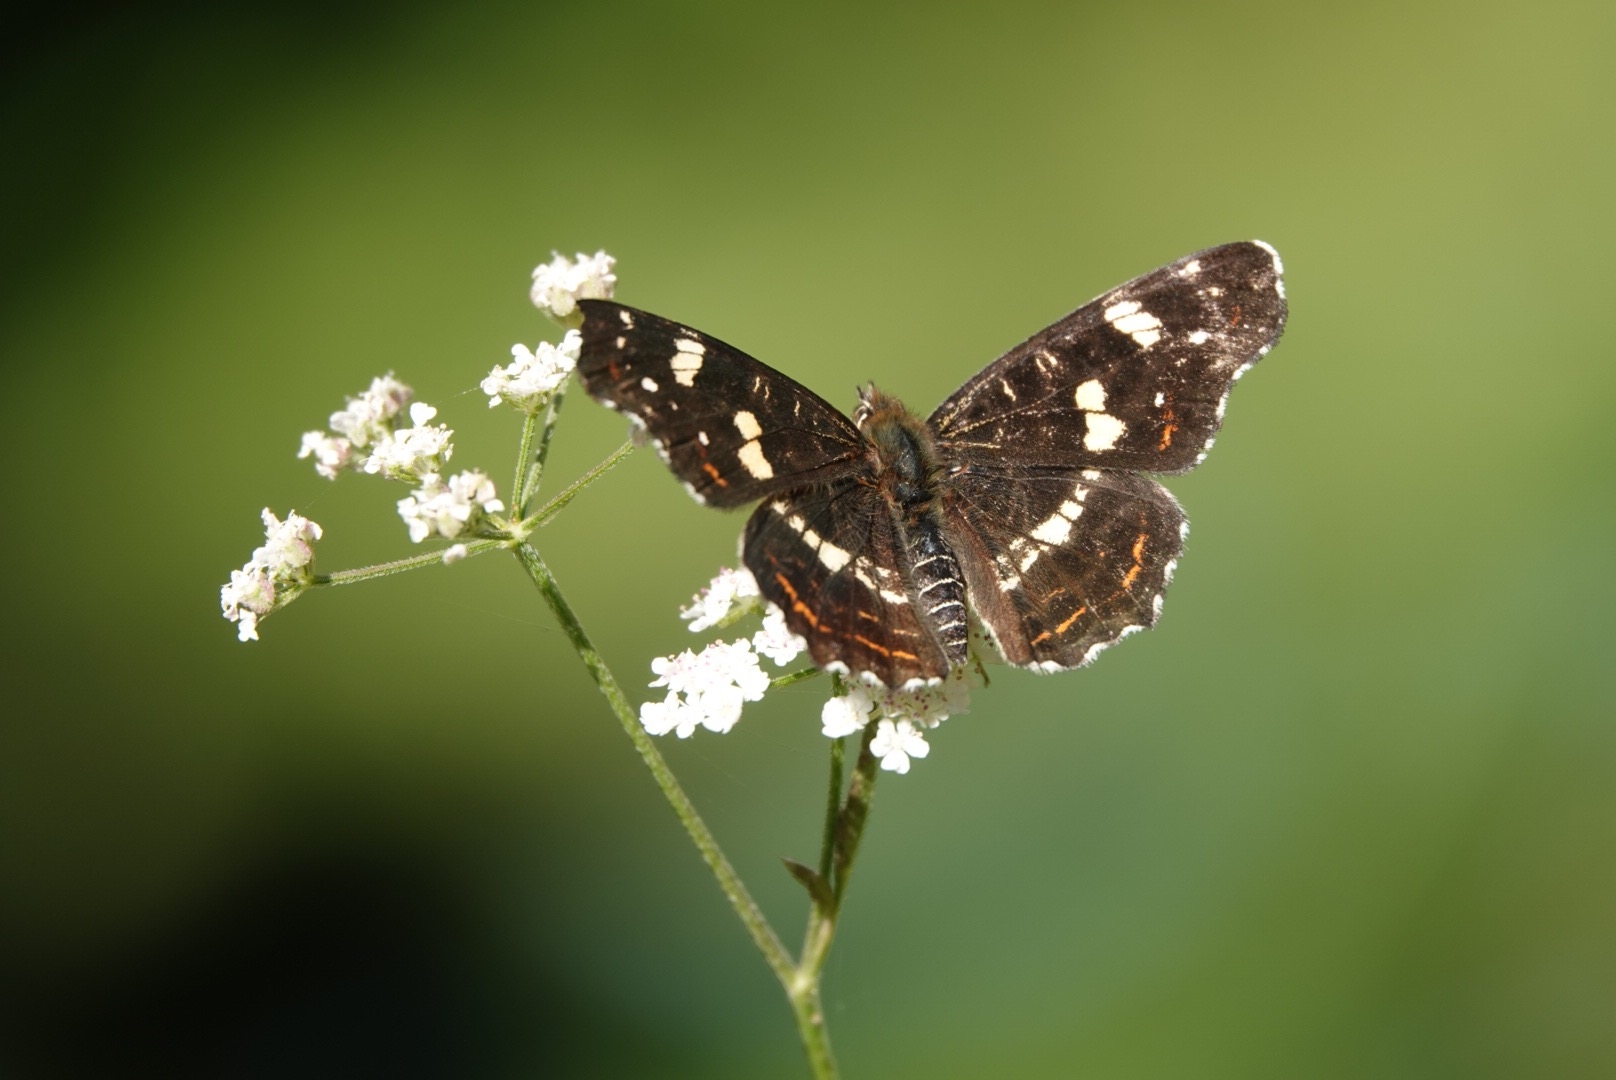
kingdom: Animalia
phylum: Arthropoda
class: Insecta
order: Lepidoptera
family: Nymphalidae
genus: Araschnia
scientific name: Araschnia levana
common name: Nældesommerfugl
